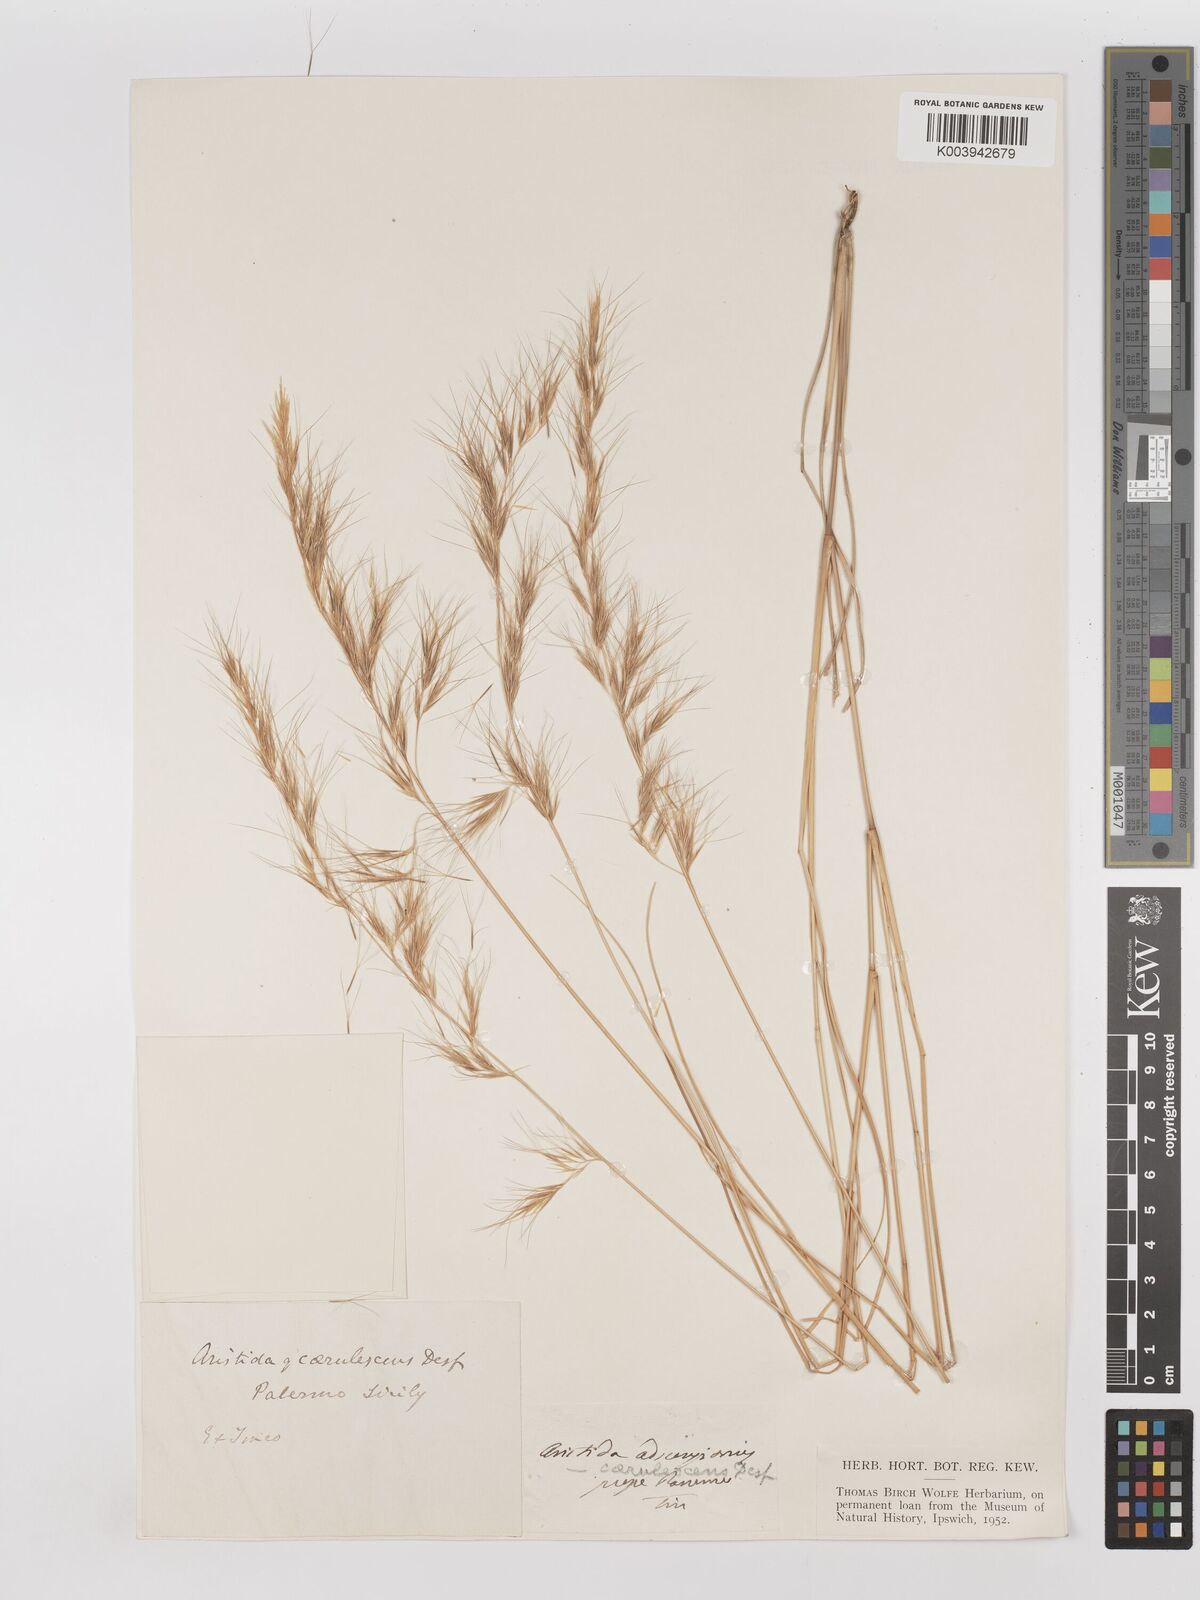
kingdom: Plantae
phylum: Tracheophyta
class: Liliopsida
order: Poales
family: Poaceae
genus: Aristida
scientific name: Aristida adscensionis
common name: Sixweeks threeawn
